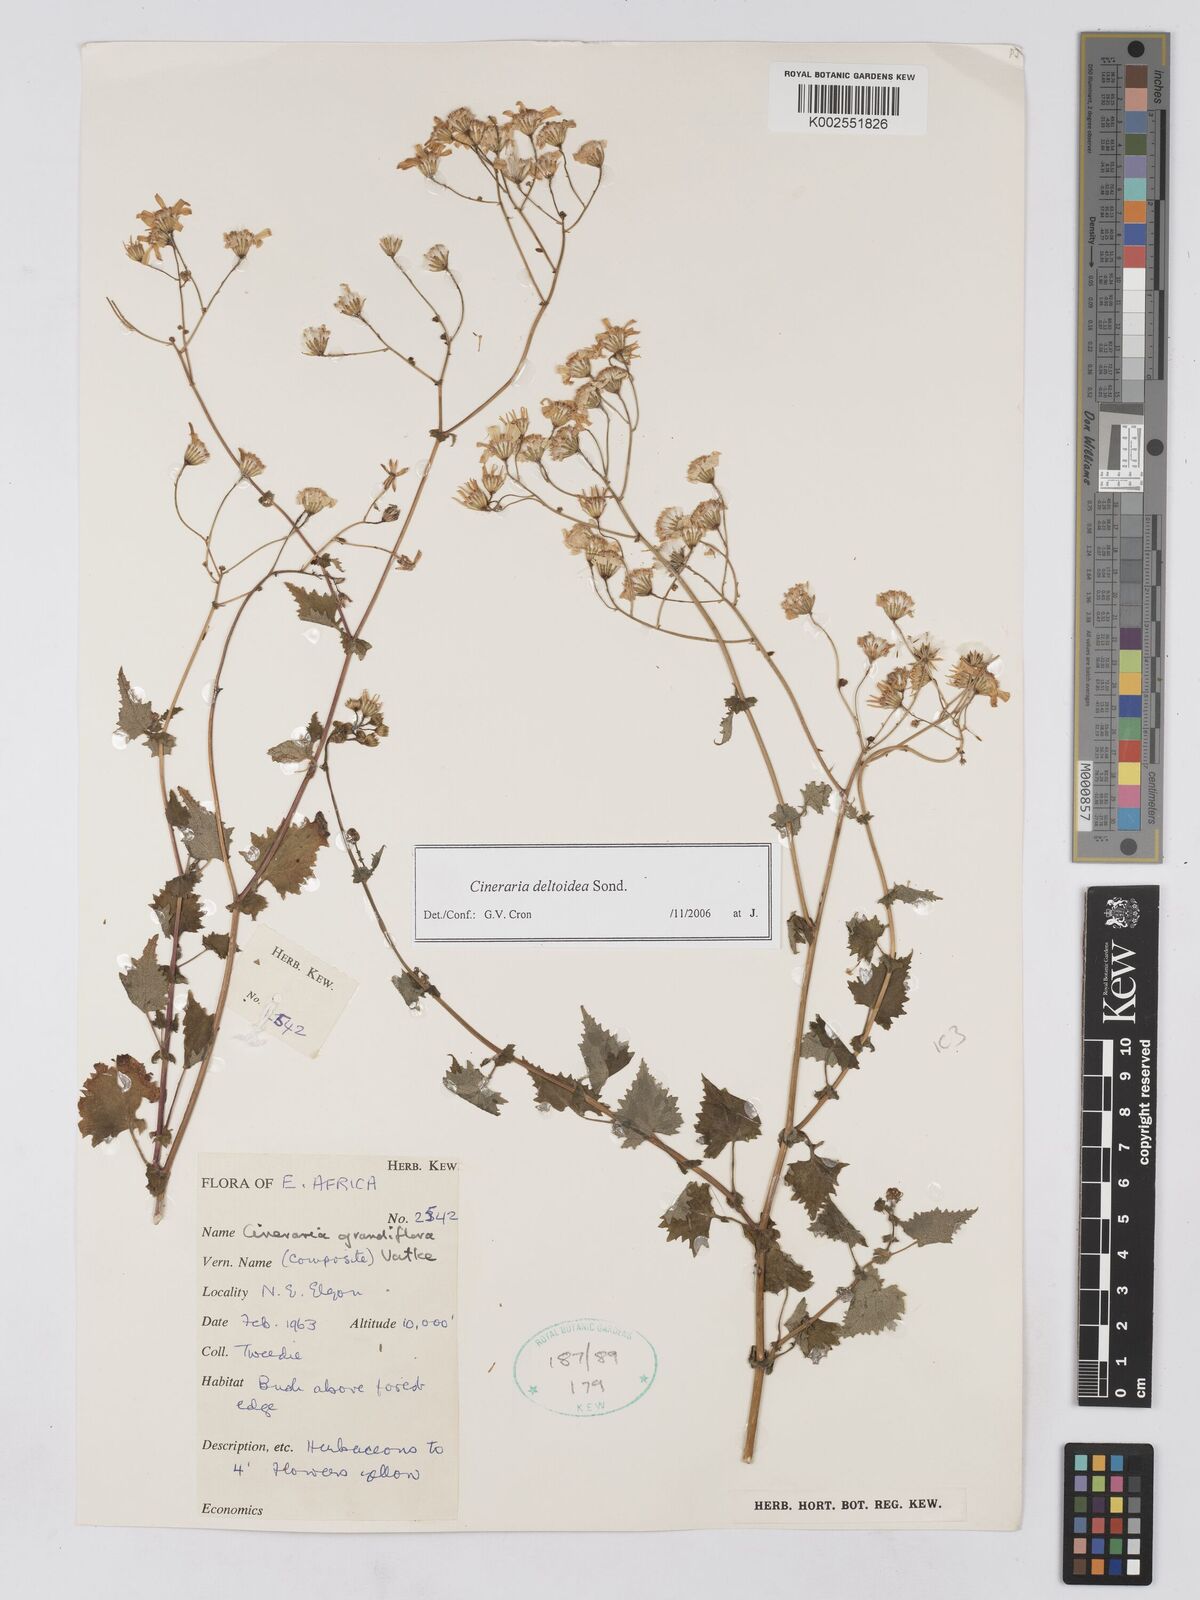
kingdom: Plantae
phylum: Tracheophyta
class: Magnoliopsida
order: Asterales
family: Asteraceae
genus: Cineraria
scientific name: Cineraria deltoidea
